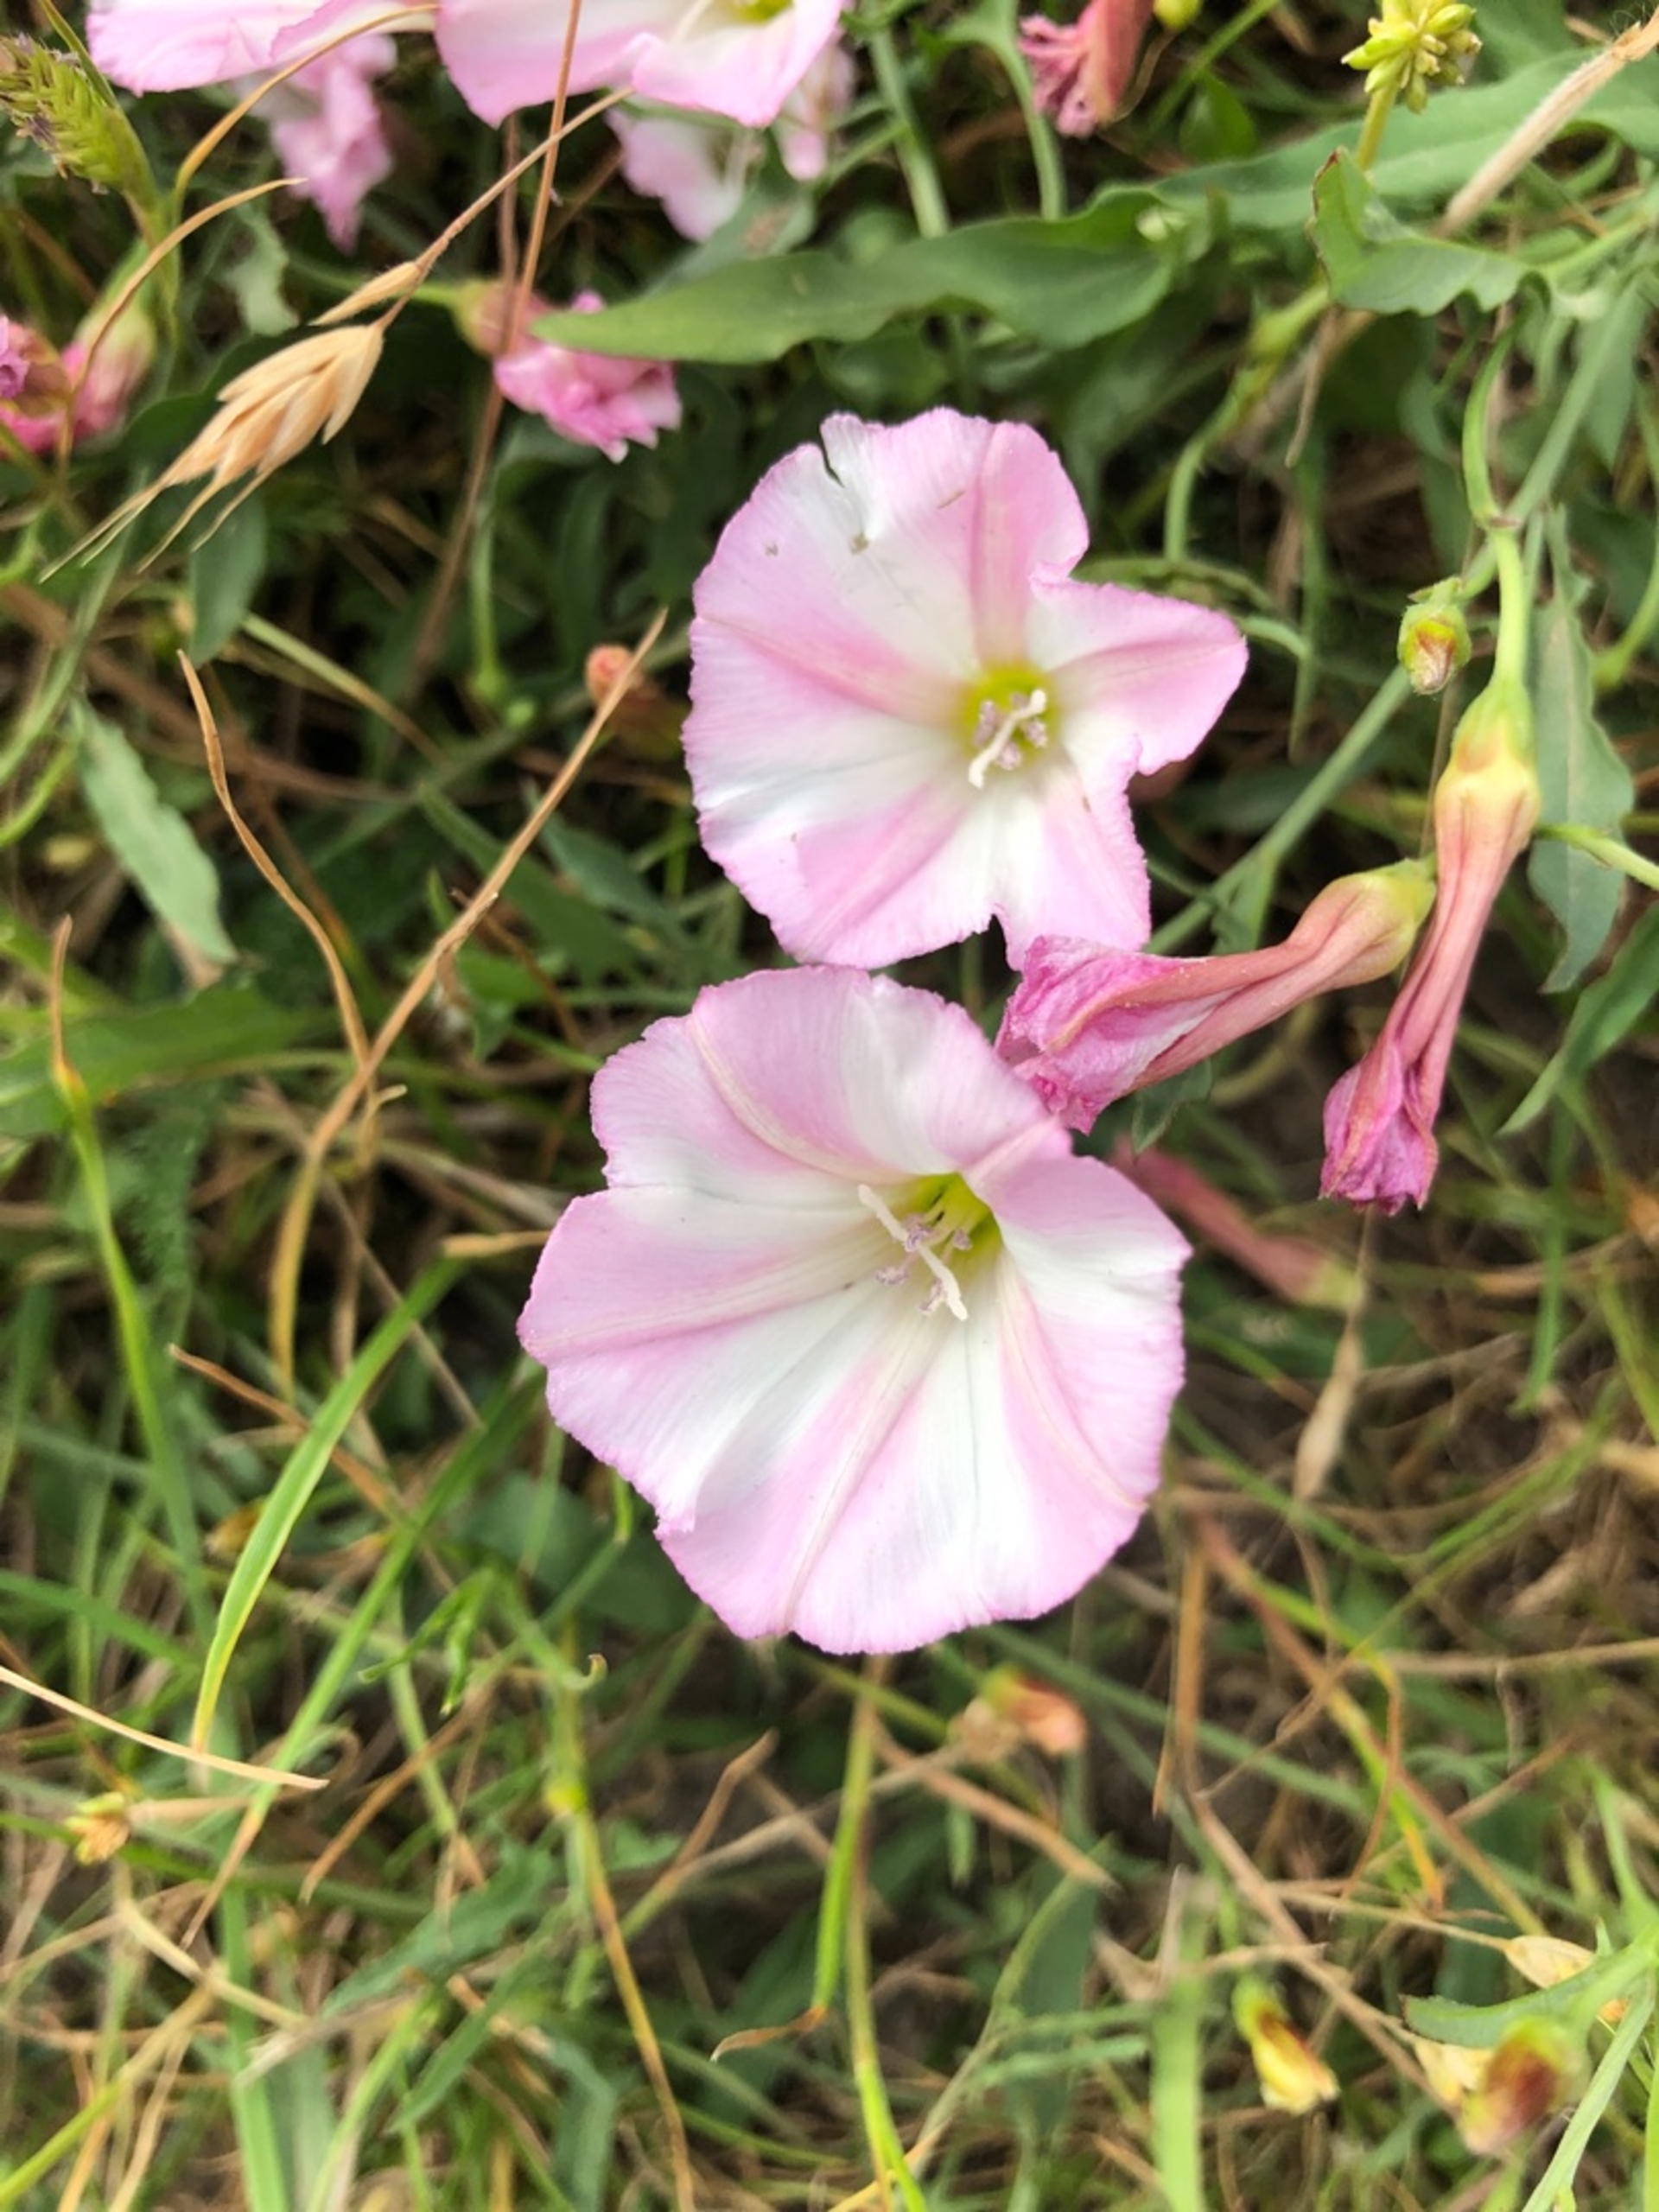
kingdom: Plantae
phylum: Tracheophyta
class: Magnoliopsida
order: Solanales
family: Convolvulaceae
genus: Convolvulus
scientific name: Convolvulus arvensis
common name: Ager-snerle
